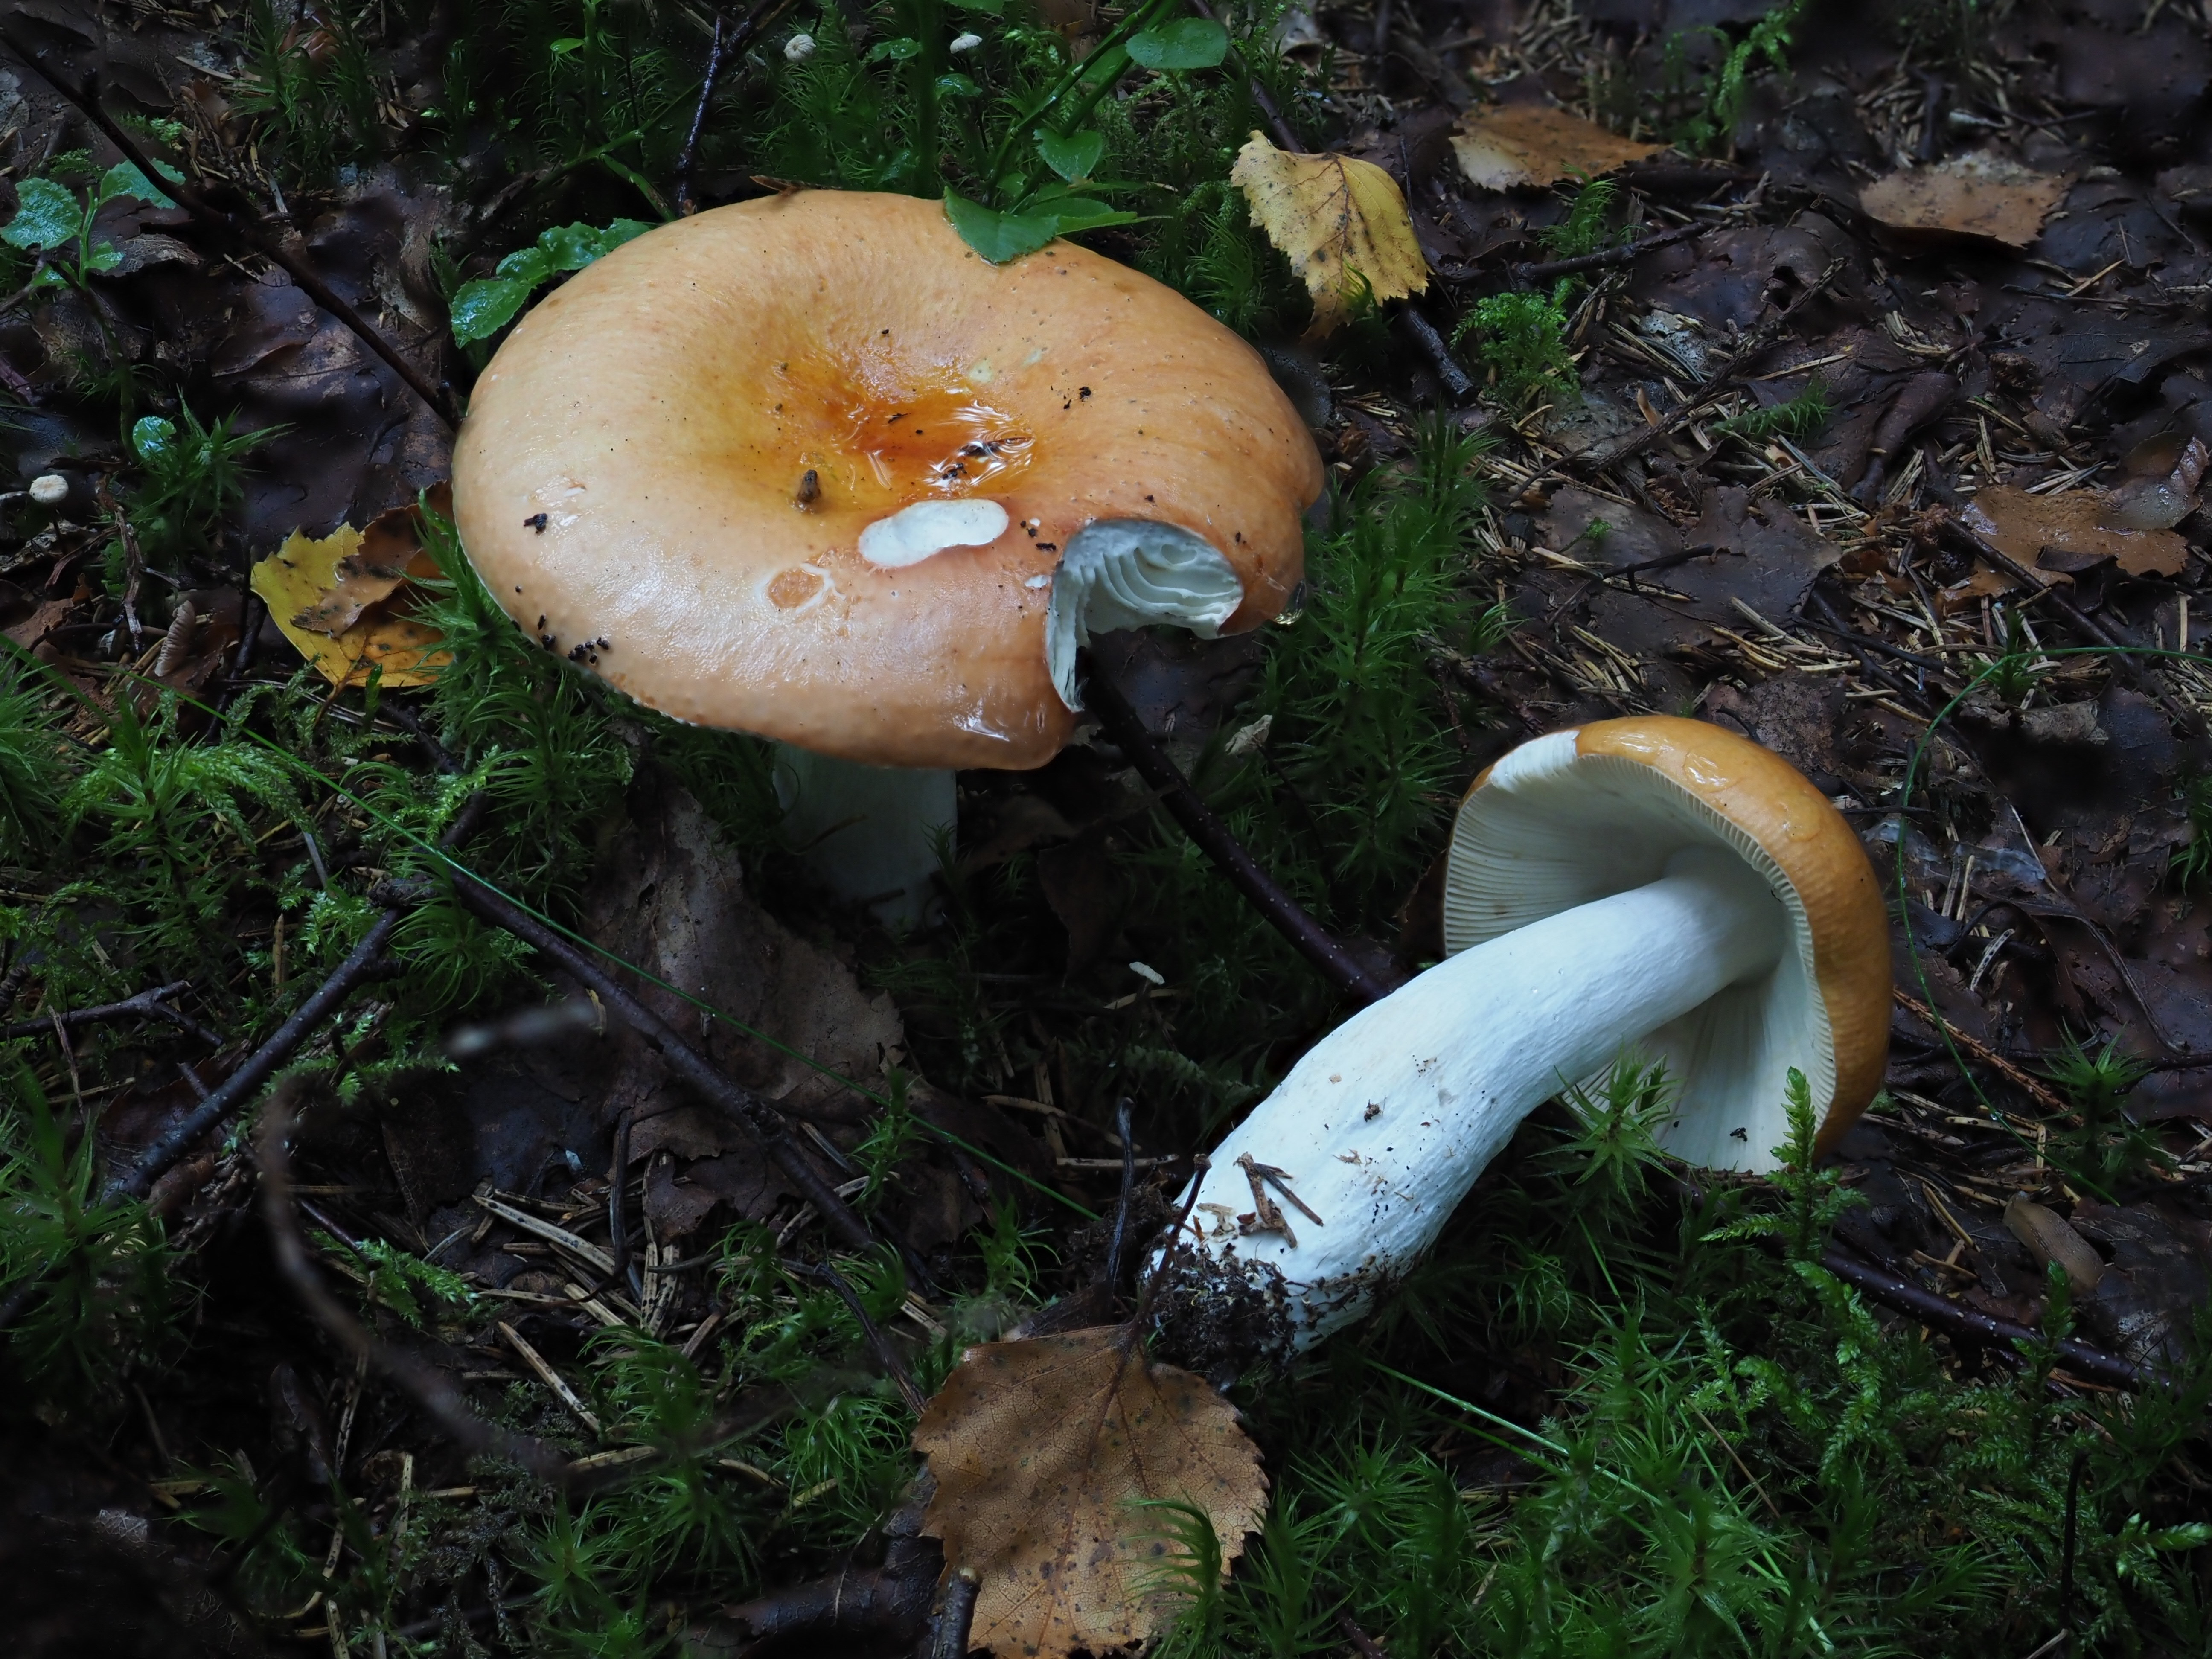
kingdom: Fungi
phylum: Basidiomycota
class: Agaricomycetes
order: Russulales
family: Russulaceae
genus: Russula
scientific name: Russula decolorans
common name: Copper brittlegill
